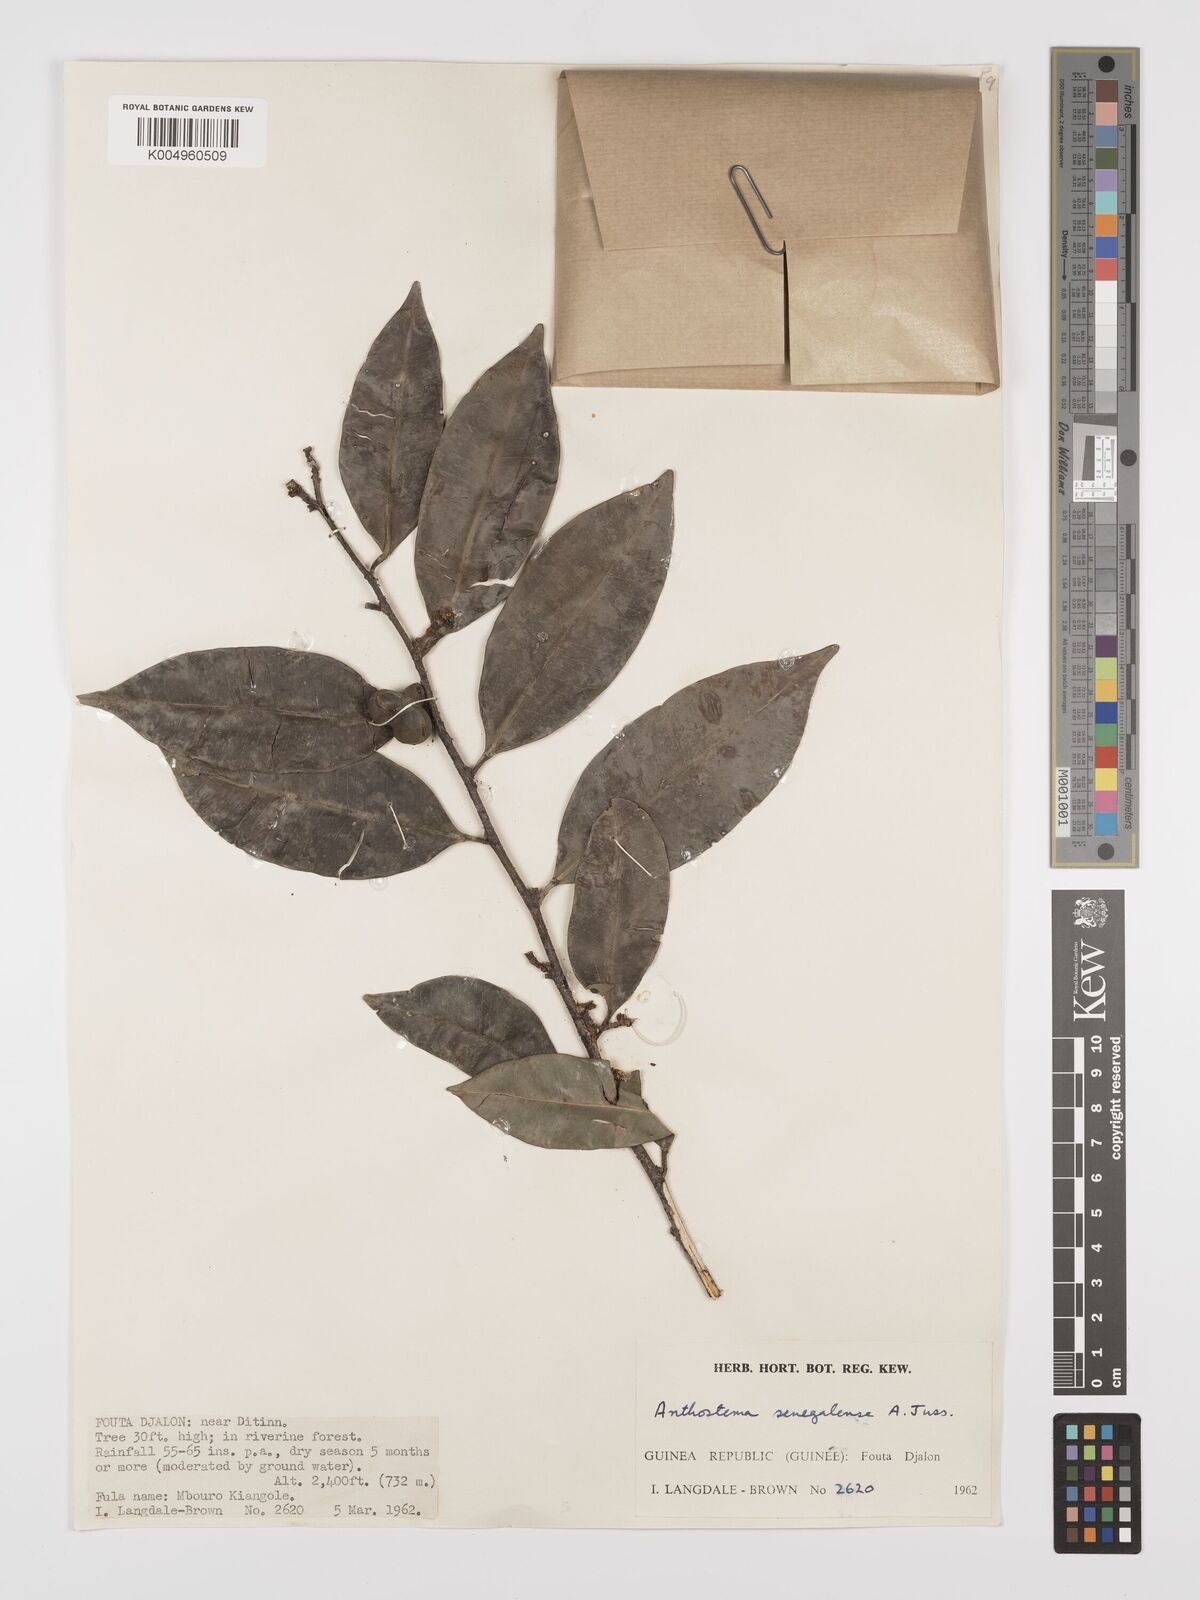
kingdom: Plantae
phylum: Tracheophyta
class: Magnoliopsida
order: Malpighiales
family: Euphorbiaceae
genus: Anthostema
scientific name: Anthostema senegalense
